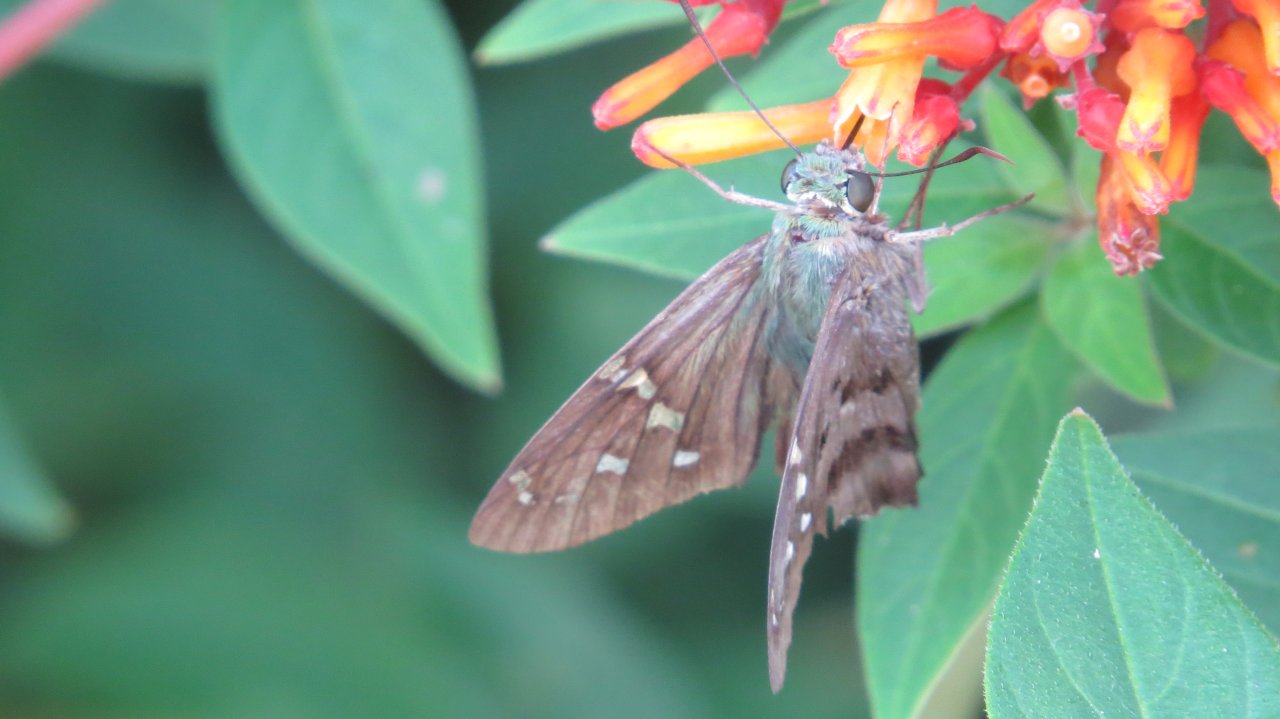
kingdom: Animalia
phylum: Arthropoda
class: Insecta
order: Lepidoptera
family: Hesperiidae
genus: Urbanus
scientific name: Urbanus proteus
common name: Long-tailed Skipper
